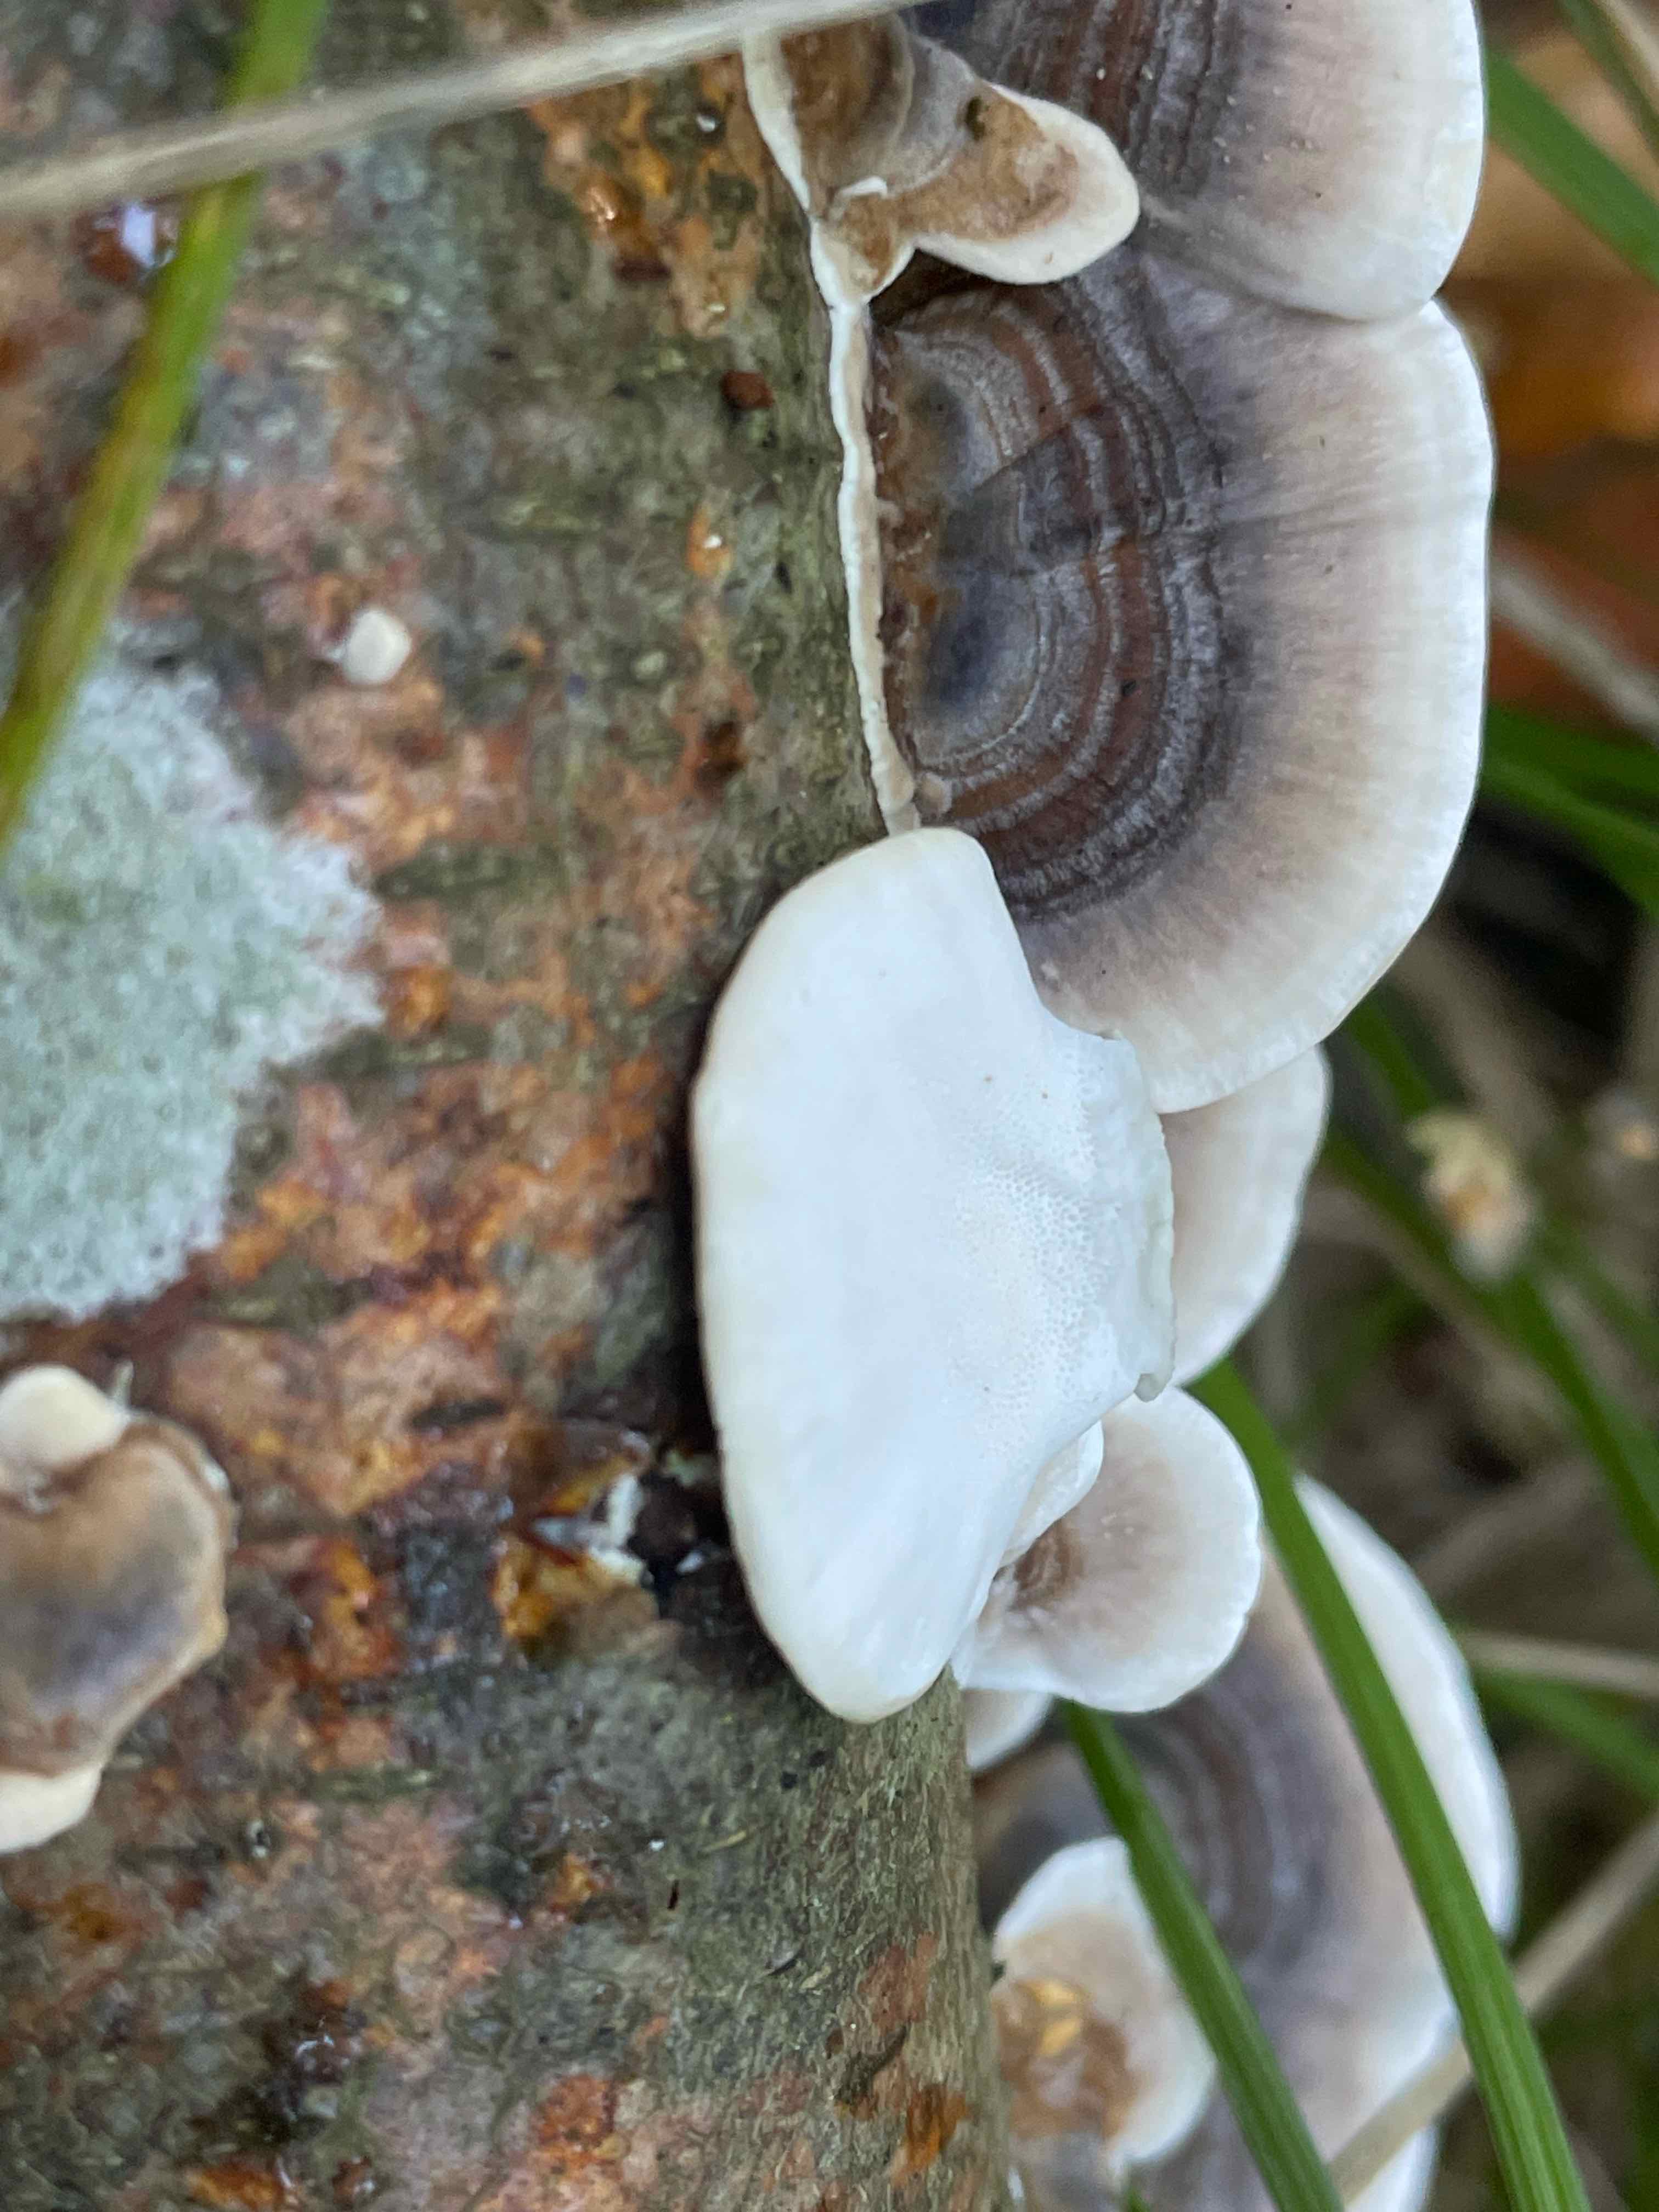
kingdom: Fungi
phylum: Basidiomycota
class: Agaricomycetes
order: Polyporales
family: Polyporaceae
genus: Trametes
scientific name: Trametes versicolor
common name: broget læderporesvamp
